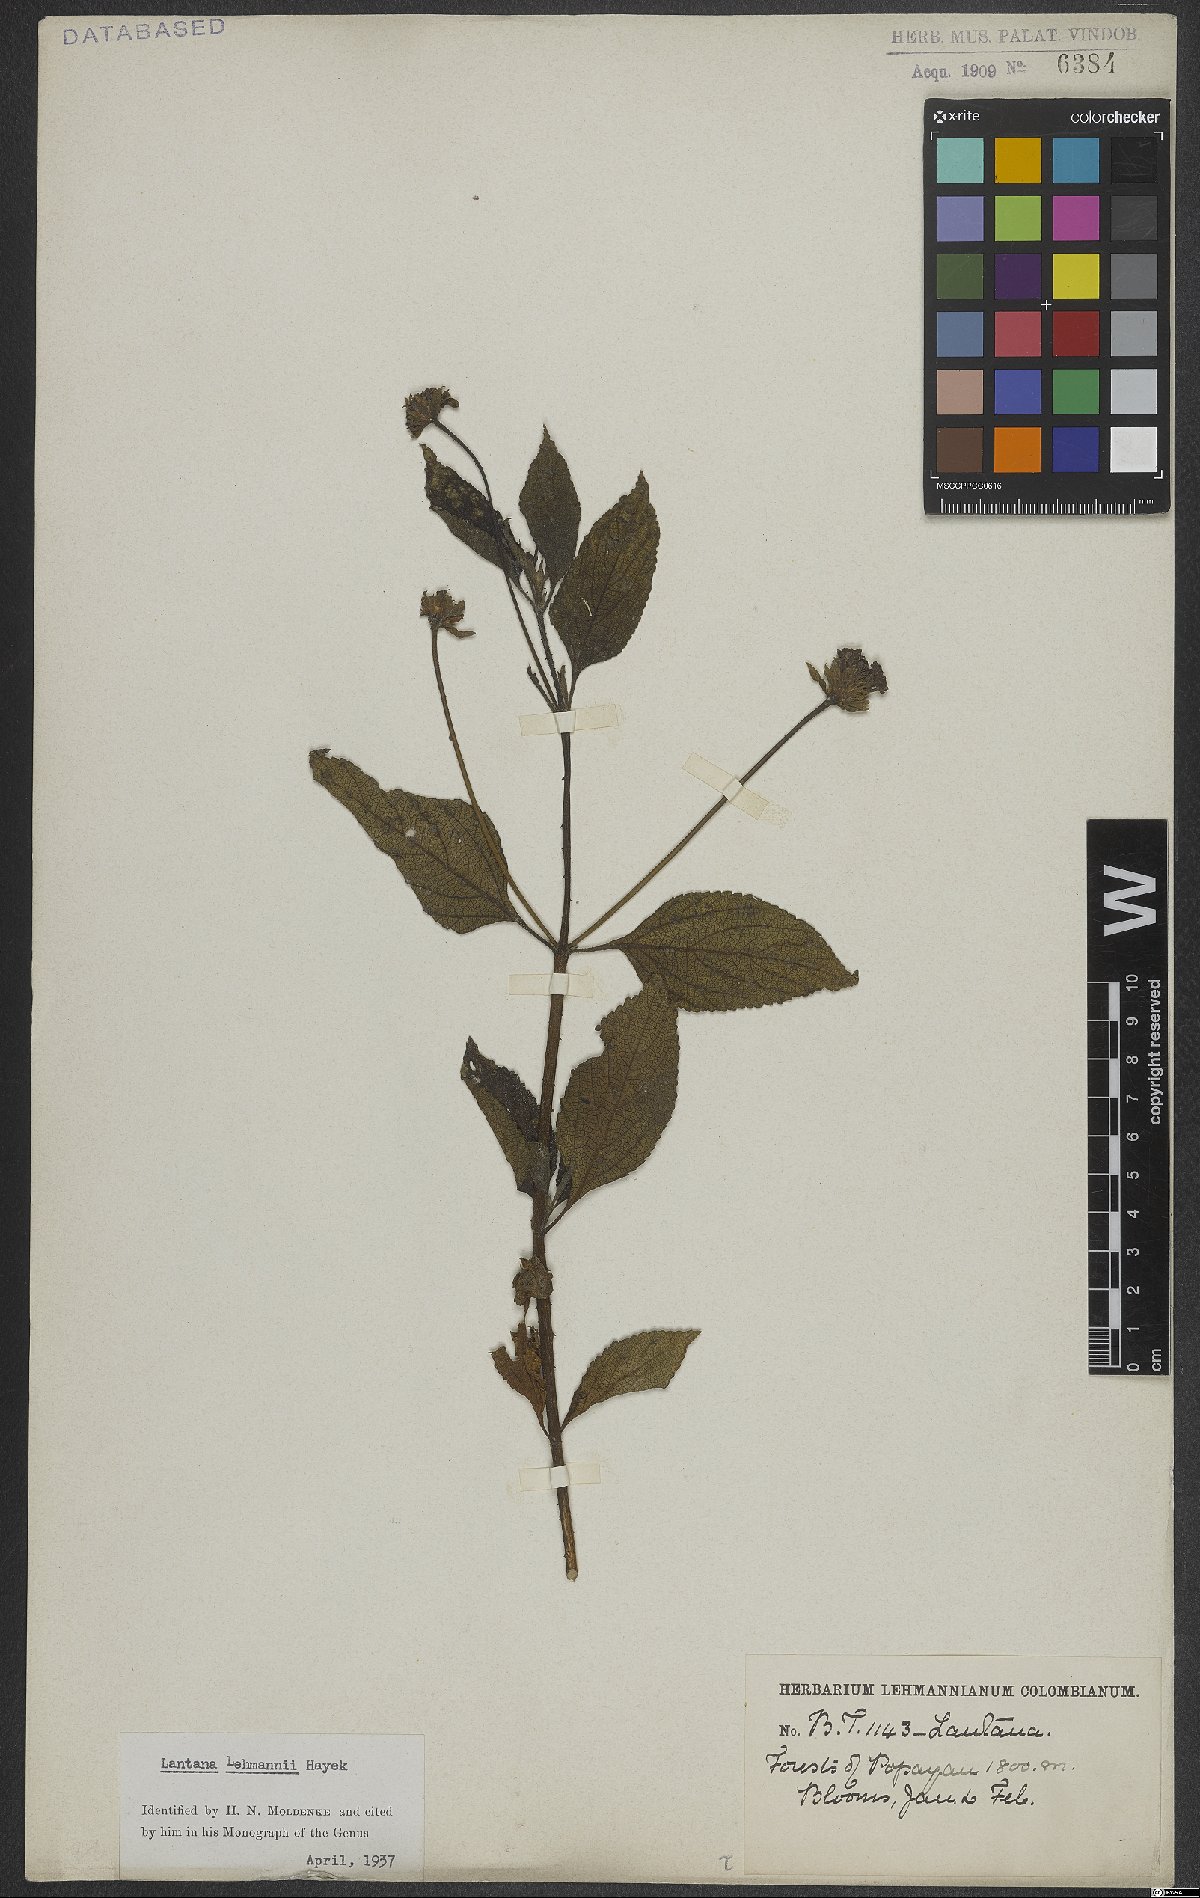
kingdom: Plantae
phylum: Tracheophyta
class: Magnoliopsida
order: Lamiales
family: Verbenaceae
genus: Lantana
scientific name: Lantana salicifolia
